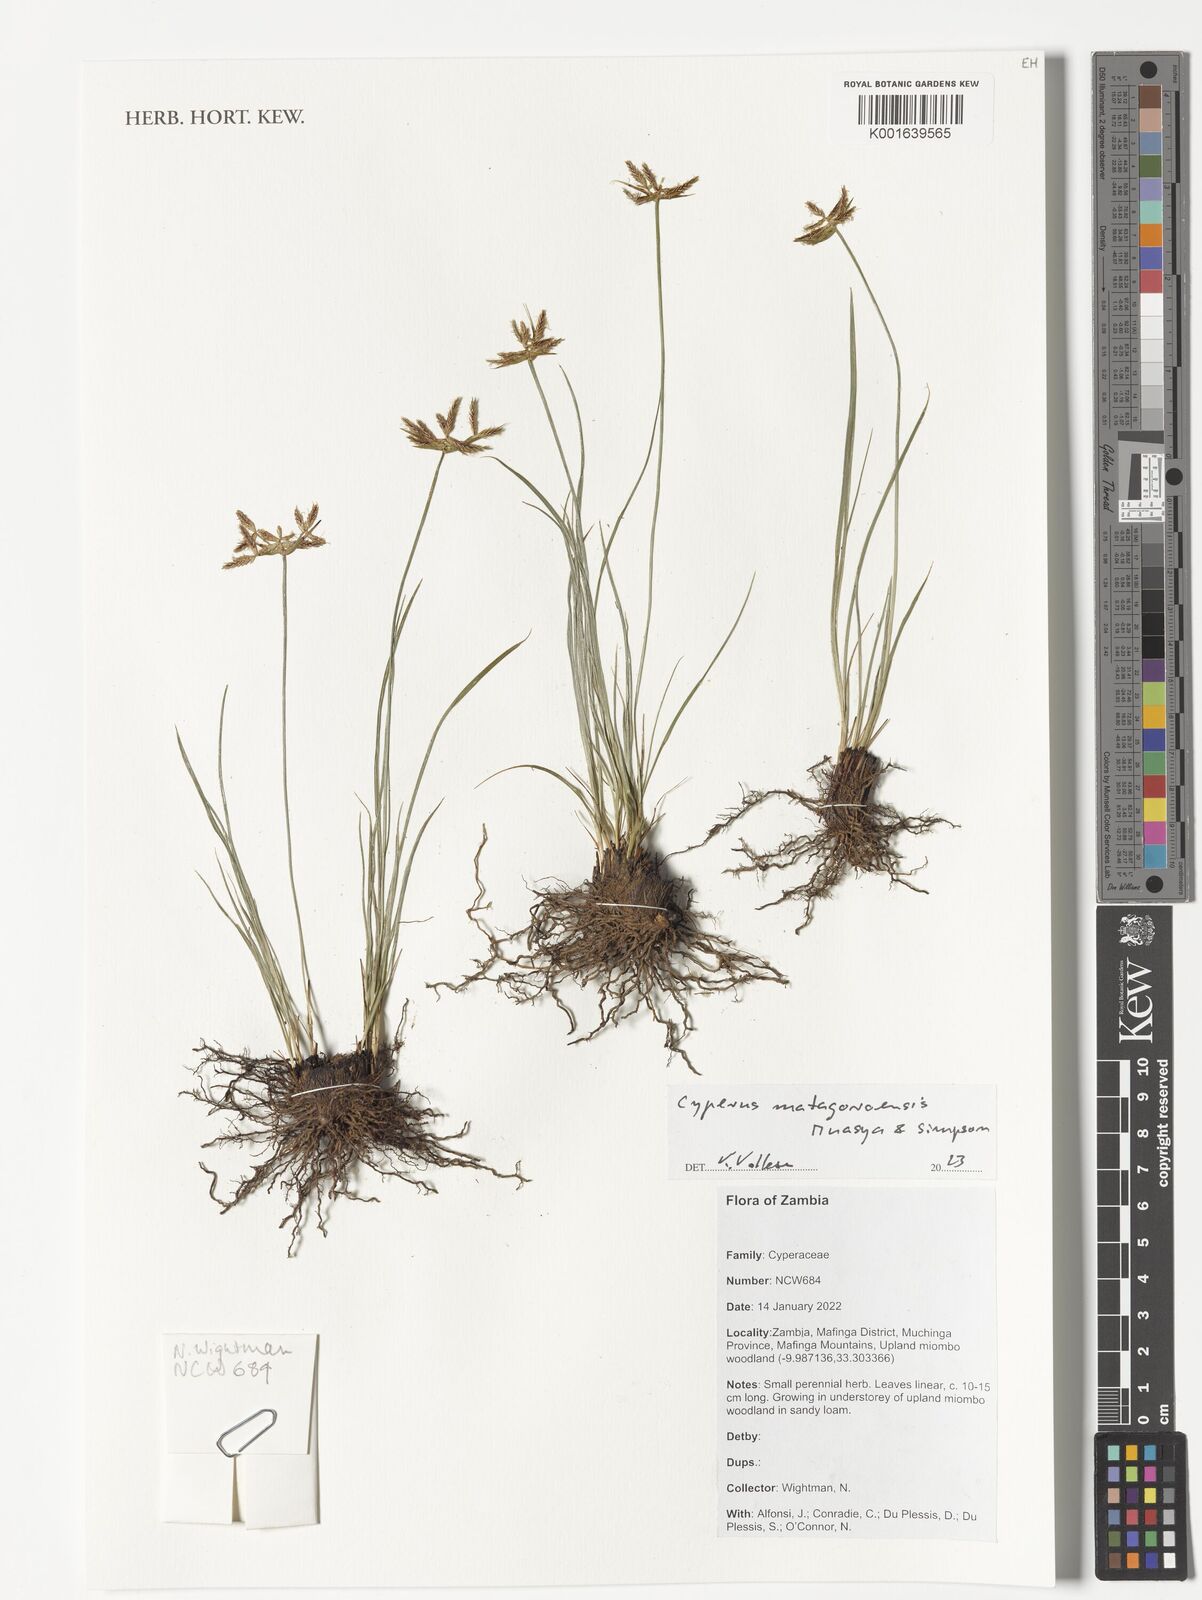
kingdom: Plantae
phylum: Tracheophyta
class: Liliopsida
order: Poales
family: Cyperaceae
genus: Cyperus
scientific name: Cyperus matagoroensis
